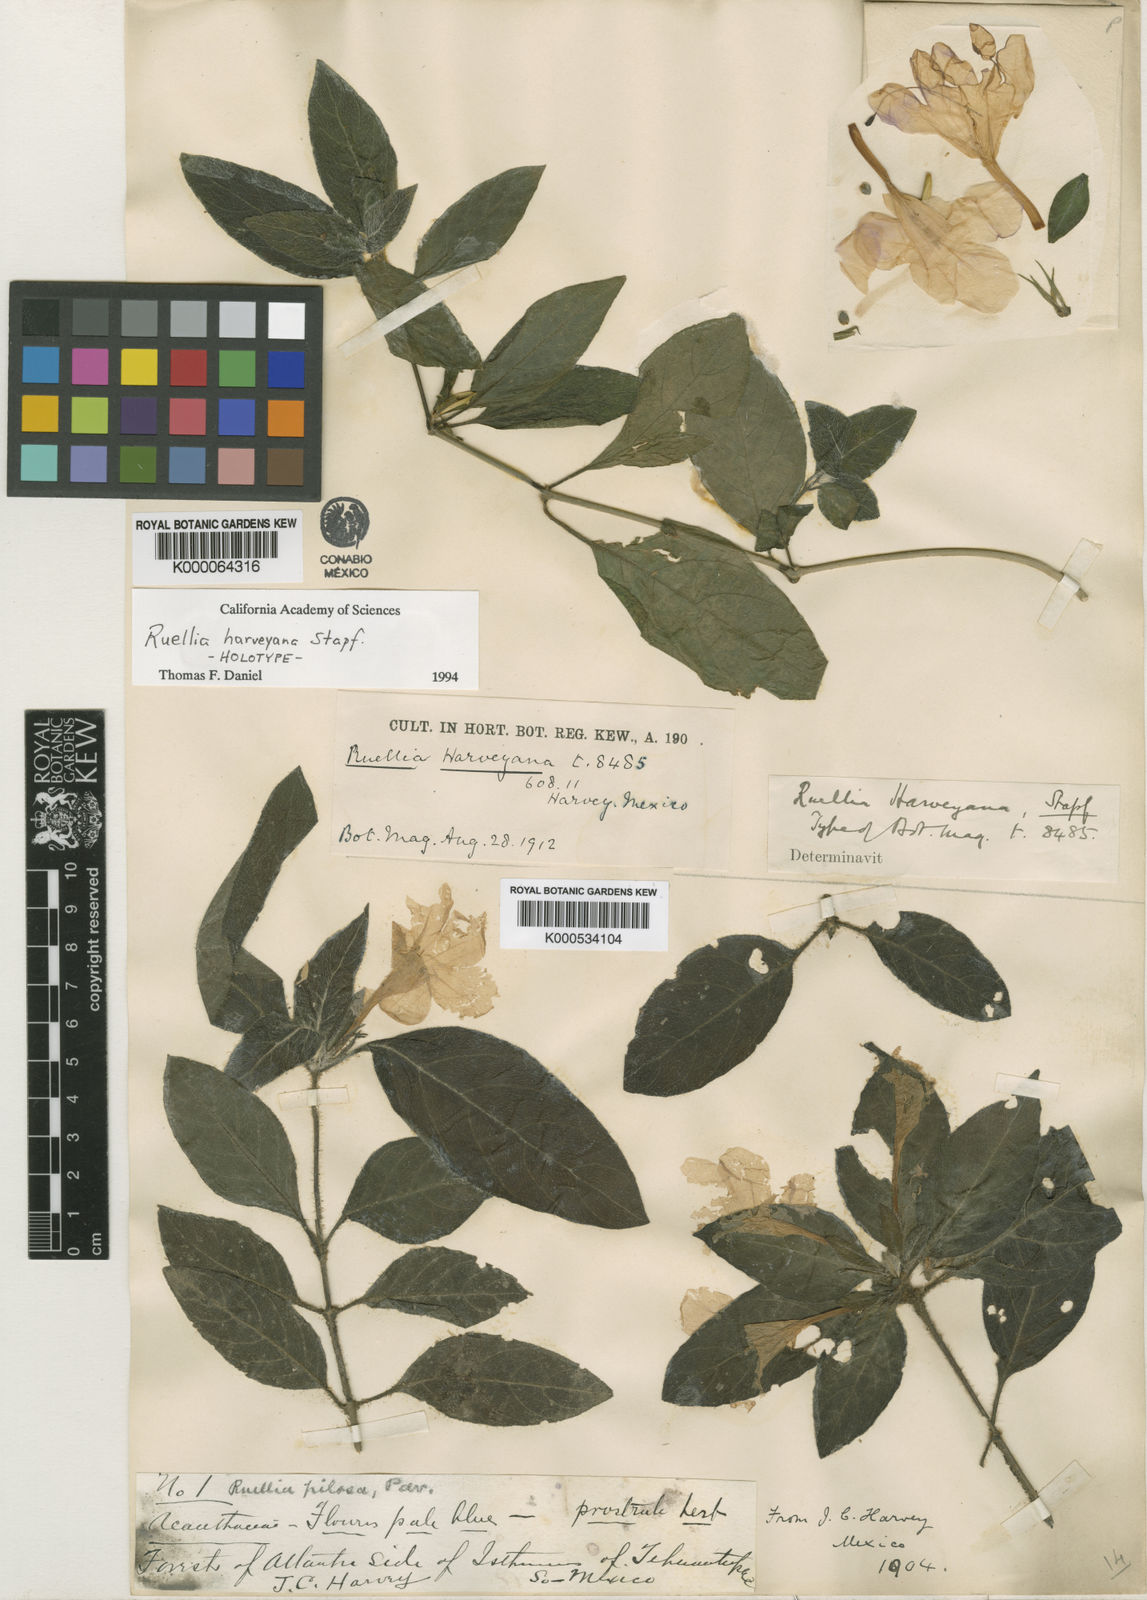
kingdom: Plantae
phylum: Tracheophyta
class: Magnoliopsida
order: Lamiales
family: Acanthaceae
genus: Ruellia
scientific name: Ruellia harveyana
